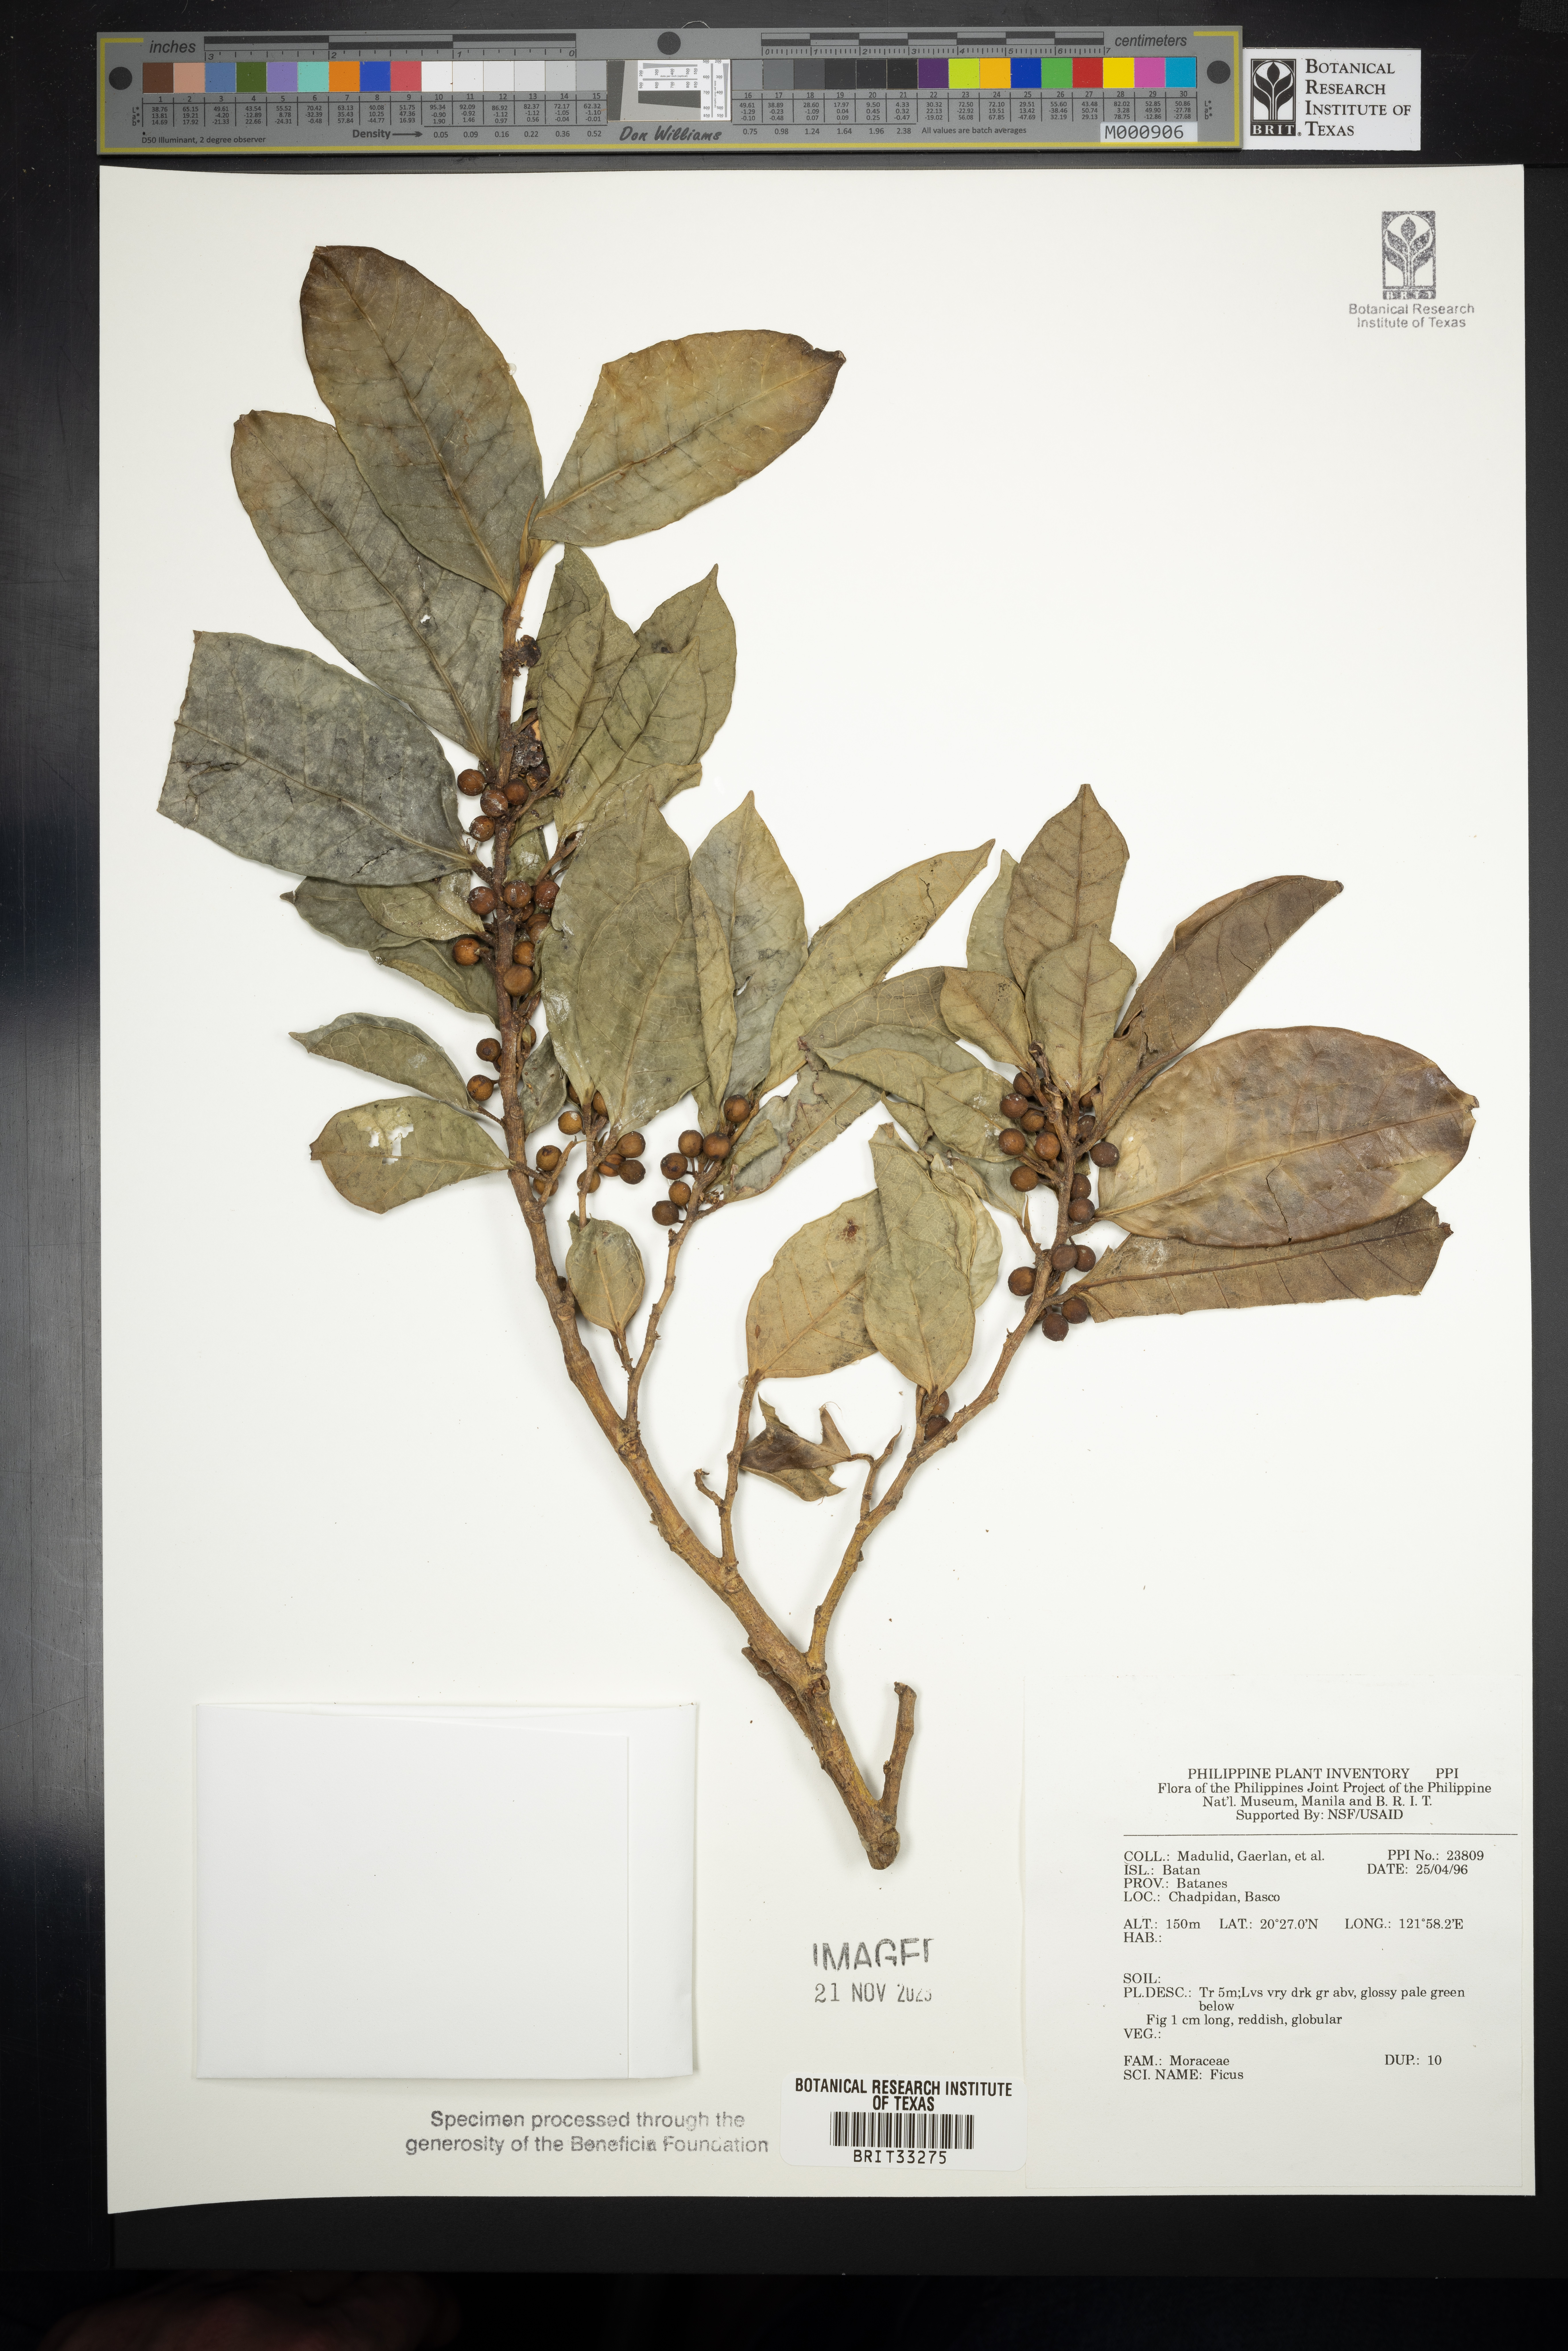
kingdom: Plantae
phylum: Tracheophyta
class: Magnoliopsida
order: Rosales
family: Moraceae
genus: Ficus
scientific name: Ficus
